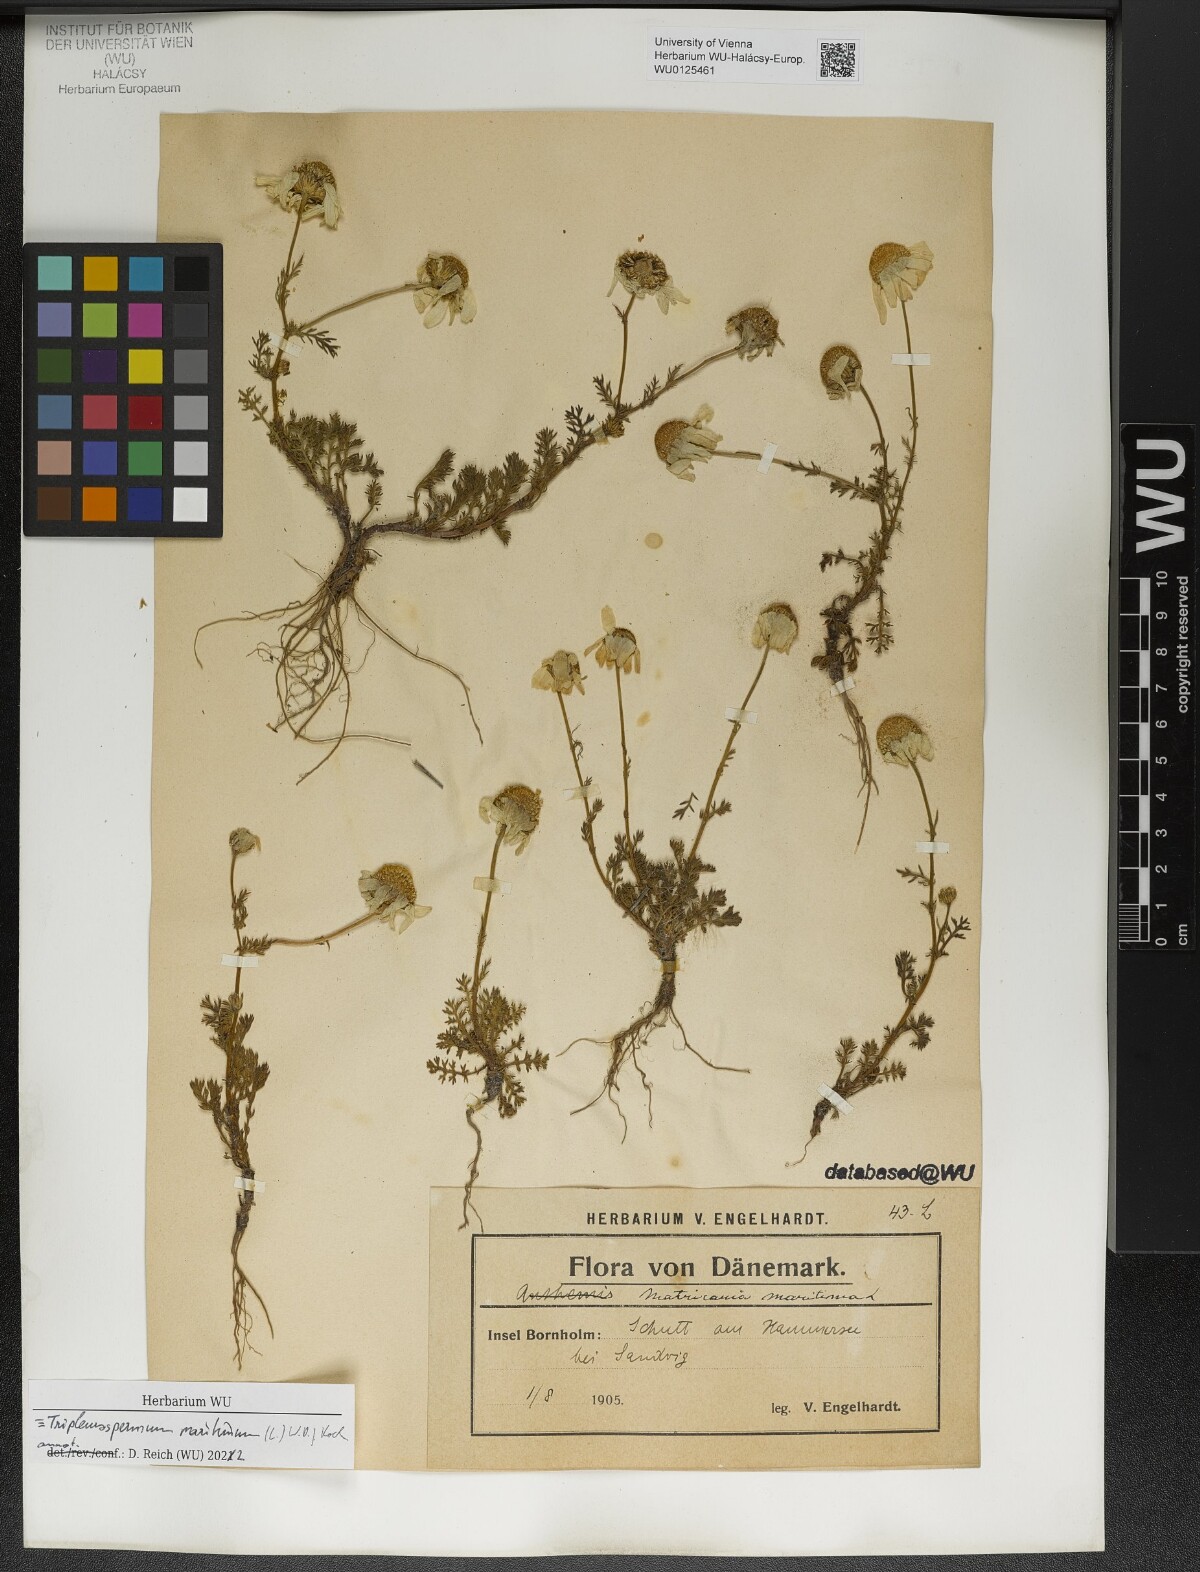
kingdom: Plantae
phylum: Tracheophyta
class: Magnoliopsida
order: Asterales
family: Asteraceae
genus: Tripleurospermum
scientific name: Tripleurospermum maritimum
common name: Sea mayweed
